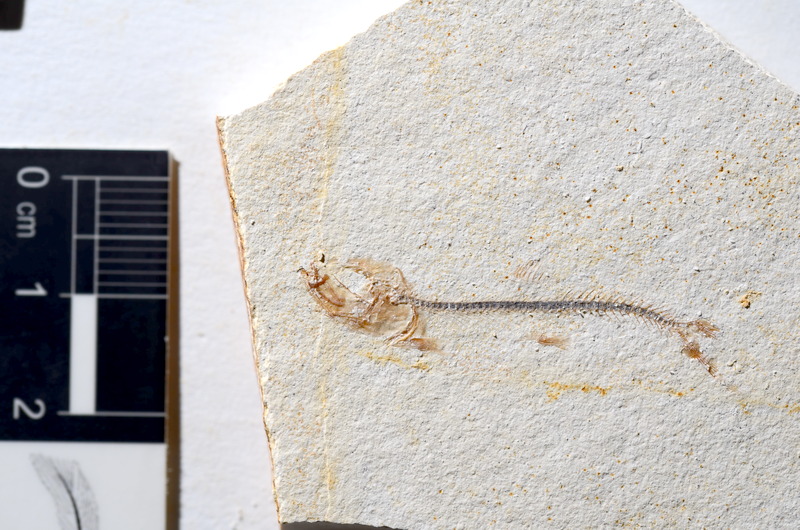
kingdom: Animalia
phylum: Chordata
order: Salmoniformes
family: Orthogonikleithridae
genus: Orthogonikleithrus
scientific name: Orthogonikleithrus hoelli
